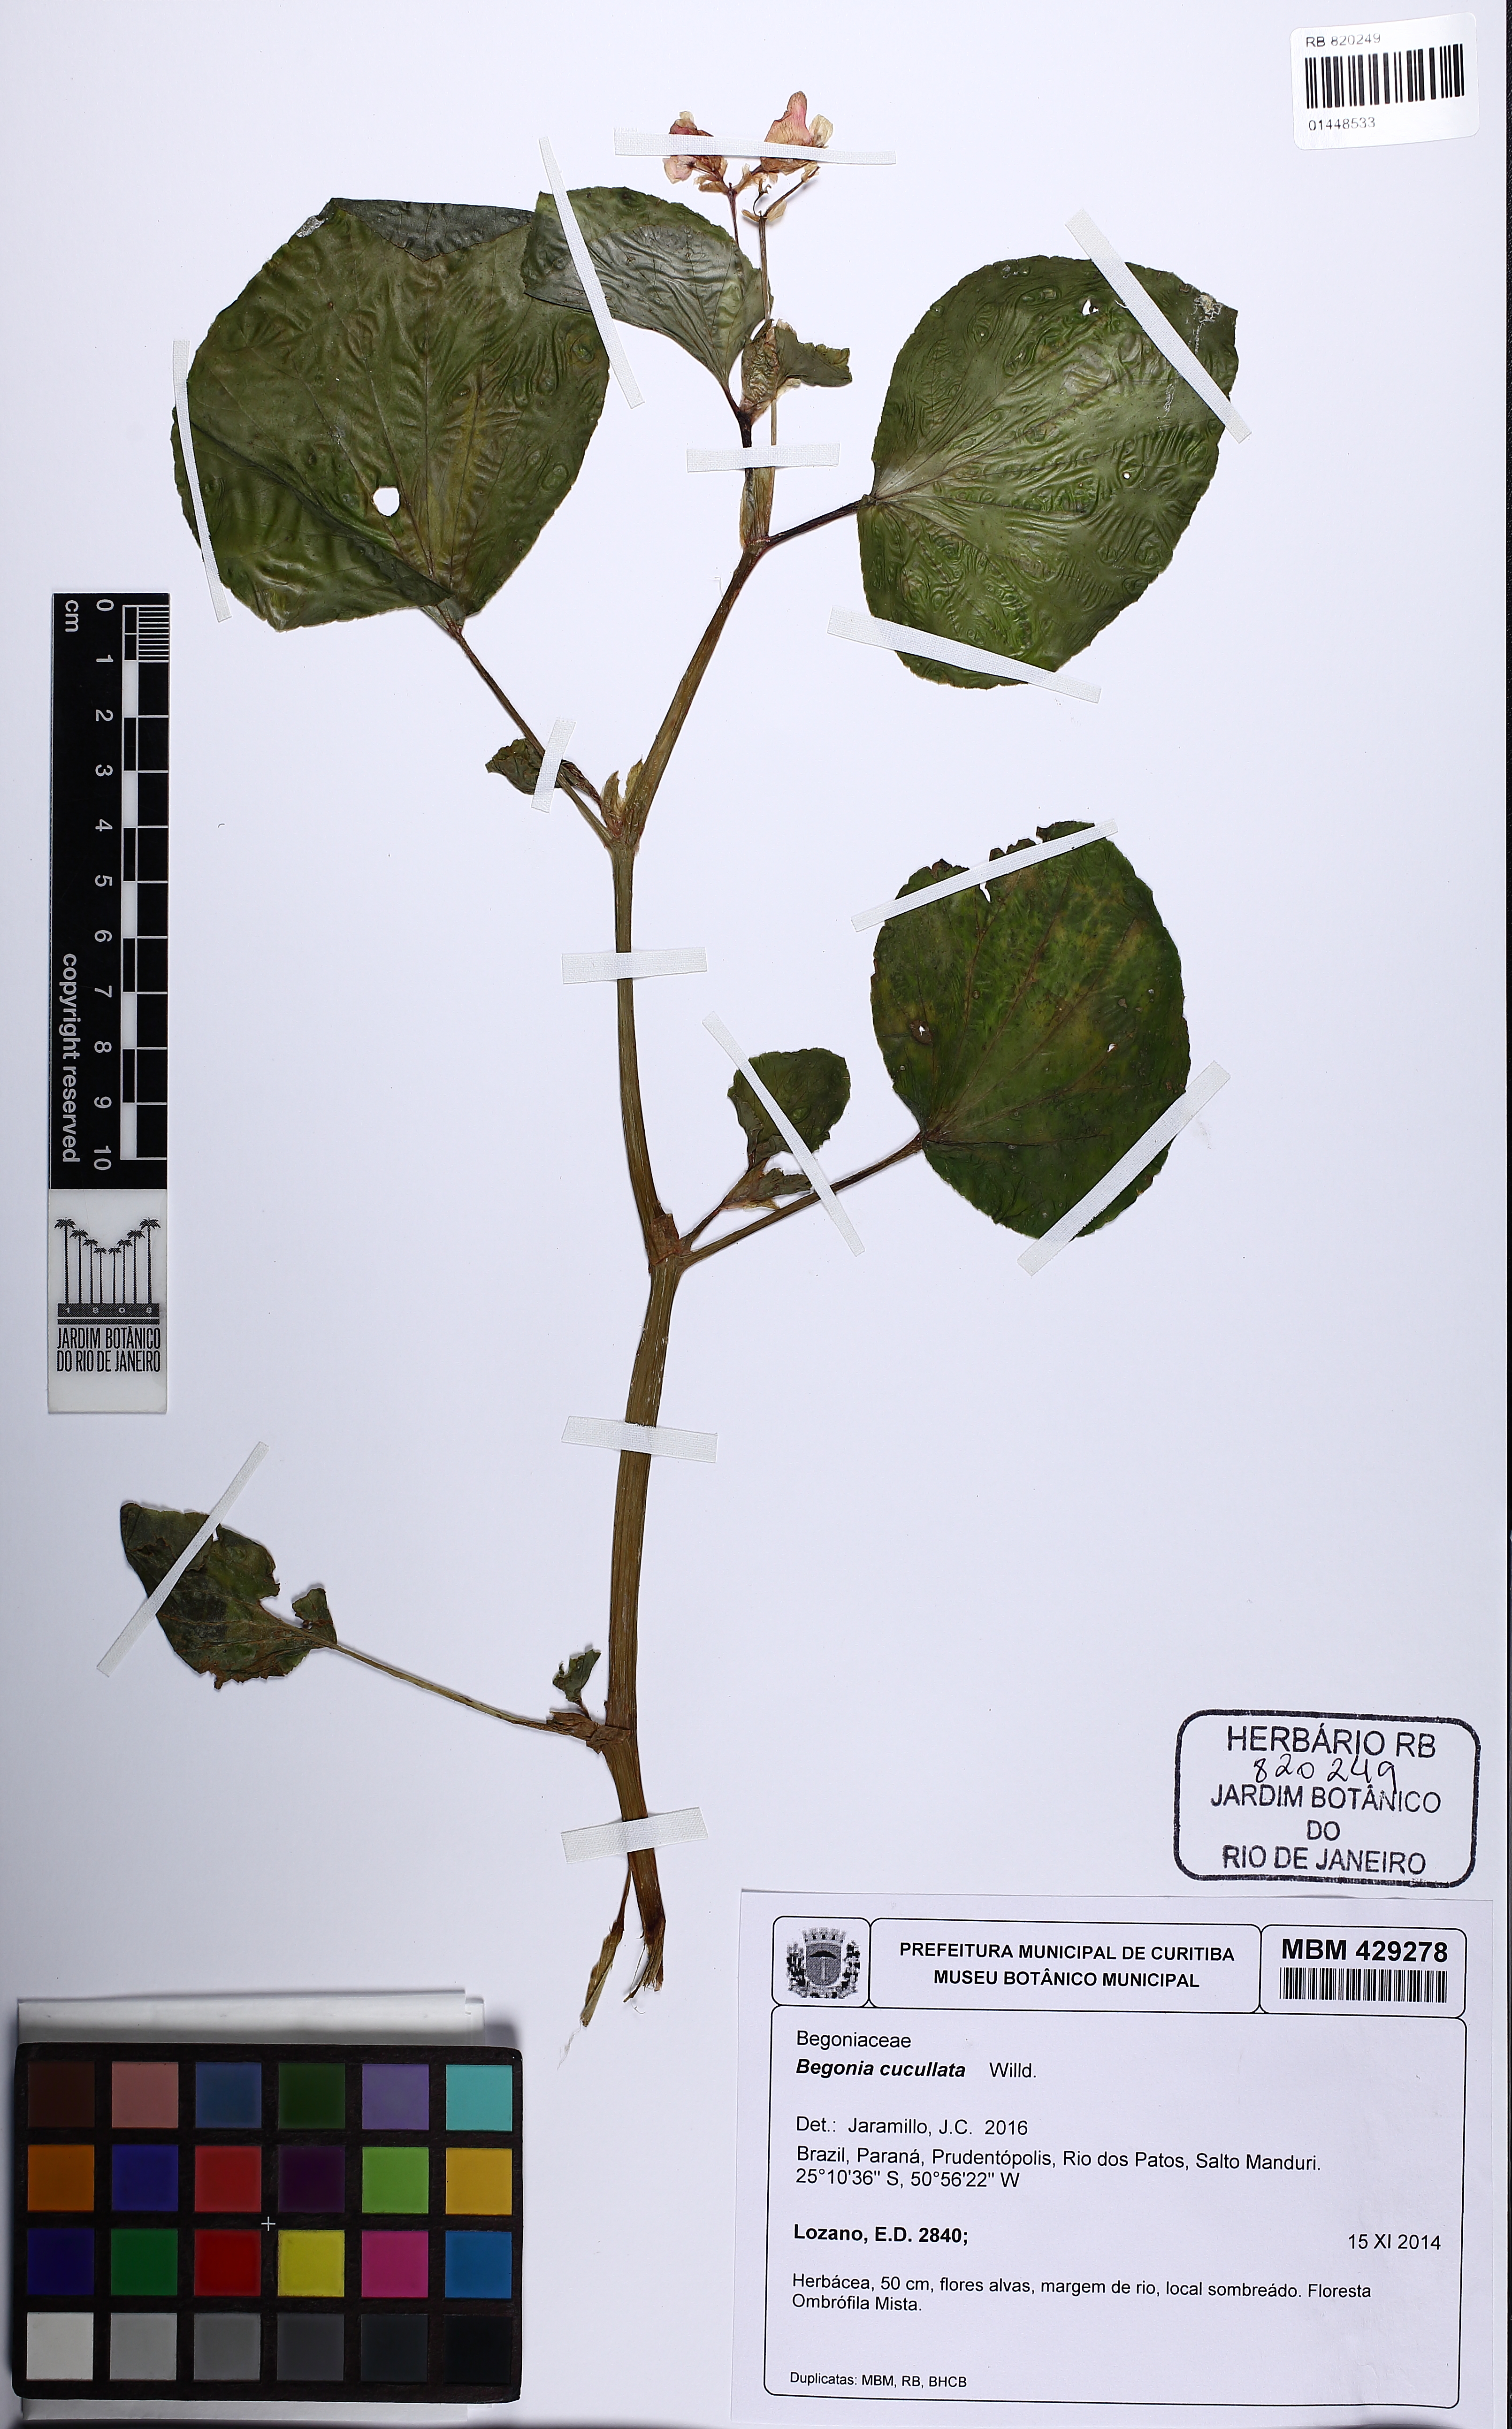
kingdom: Plantae
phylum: Tracheophyta
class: Magnoliopsida
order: Cucurbitales
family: Begoniaceae
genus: Begonia
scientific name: Begonia cucullata
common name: Clubbed begonia
